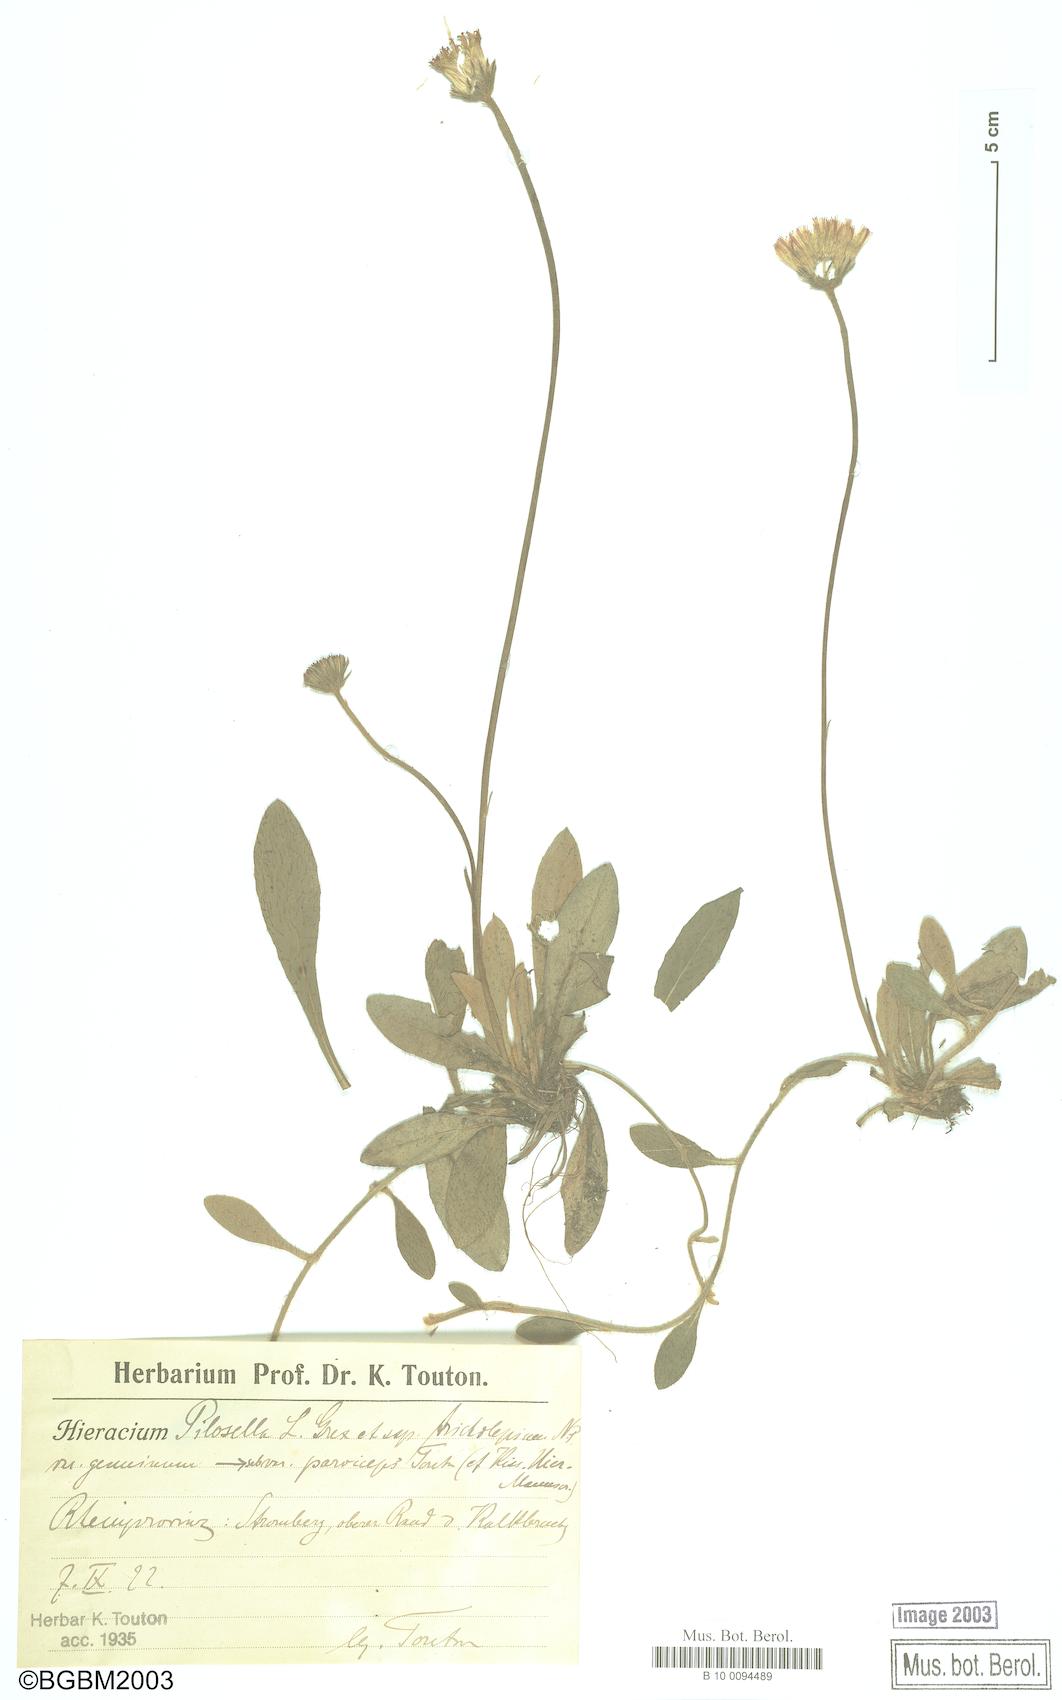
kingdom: Plantae
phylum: Tracheophyta
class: Magnoliopsida
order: Asterales
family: Asteraceae
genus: Pilosella
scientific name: Pilosella officinarum
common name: Mouse-ear hawkweed
